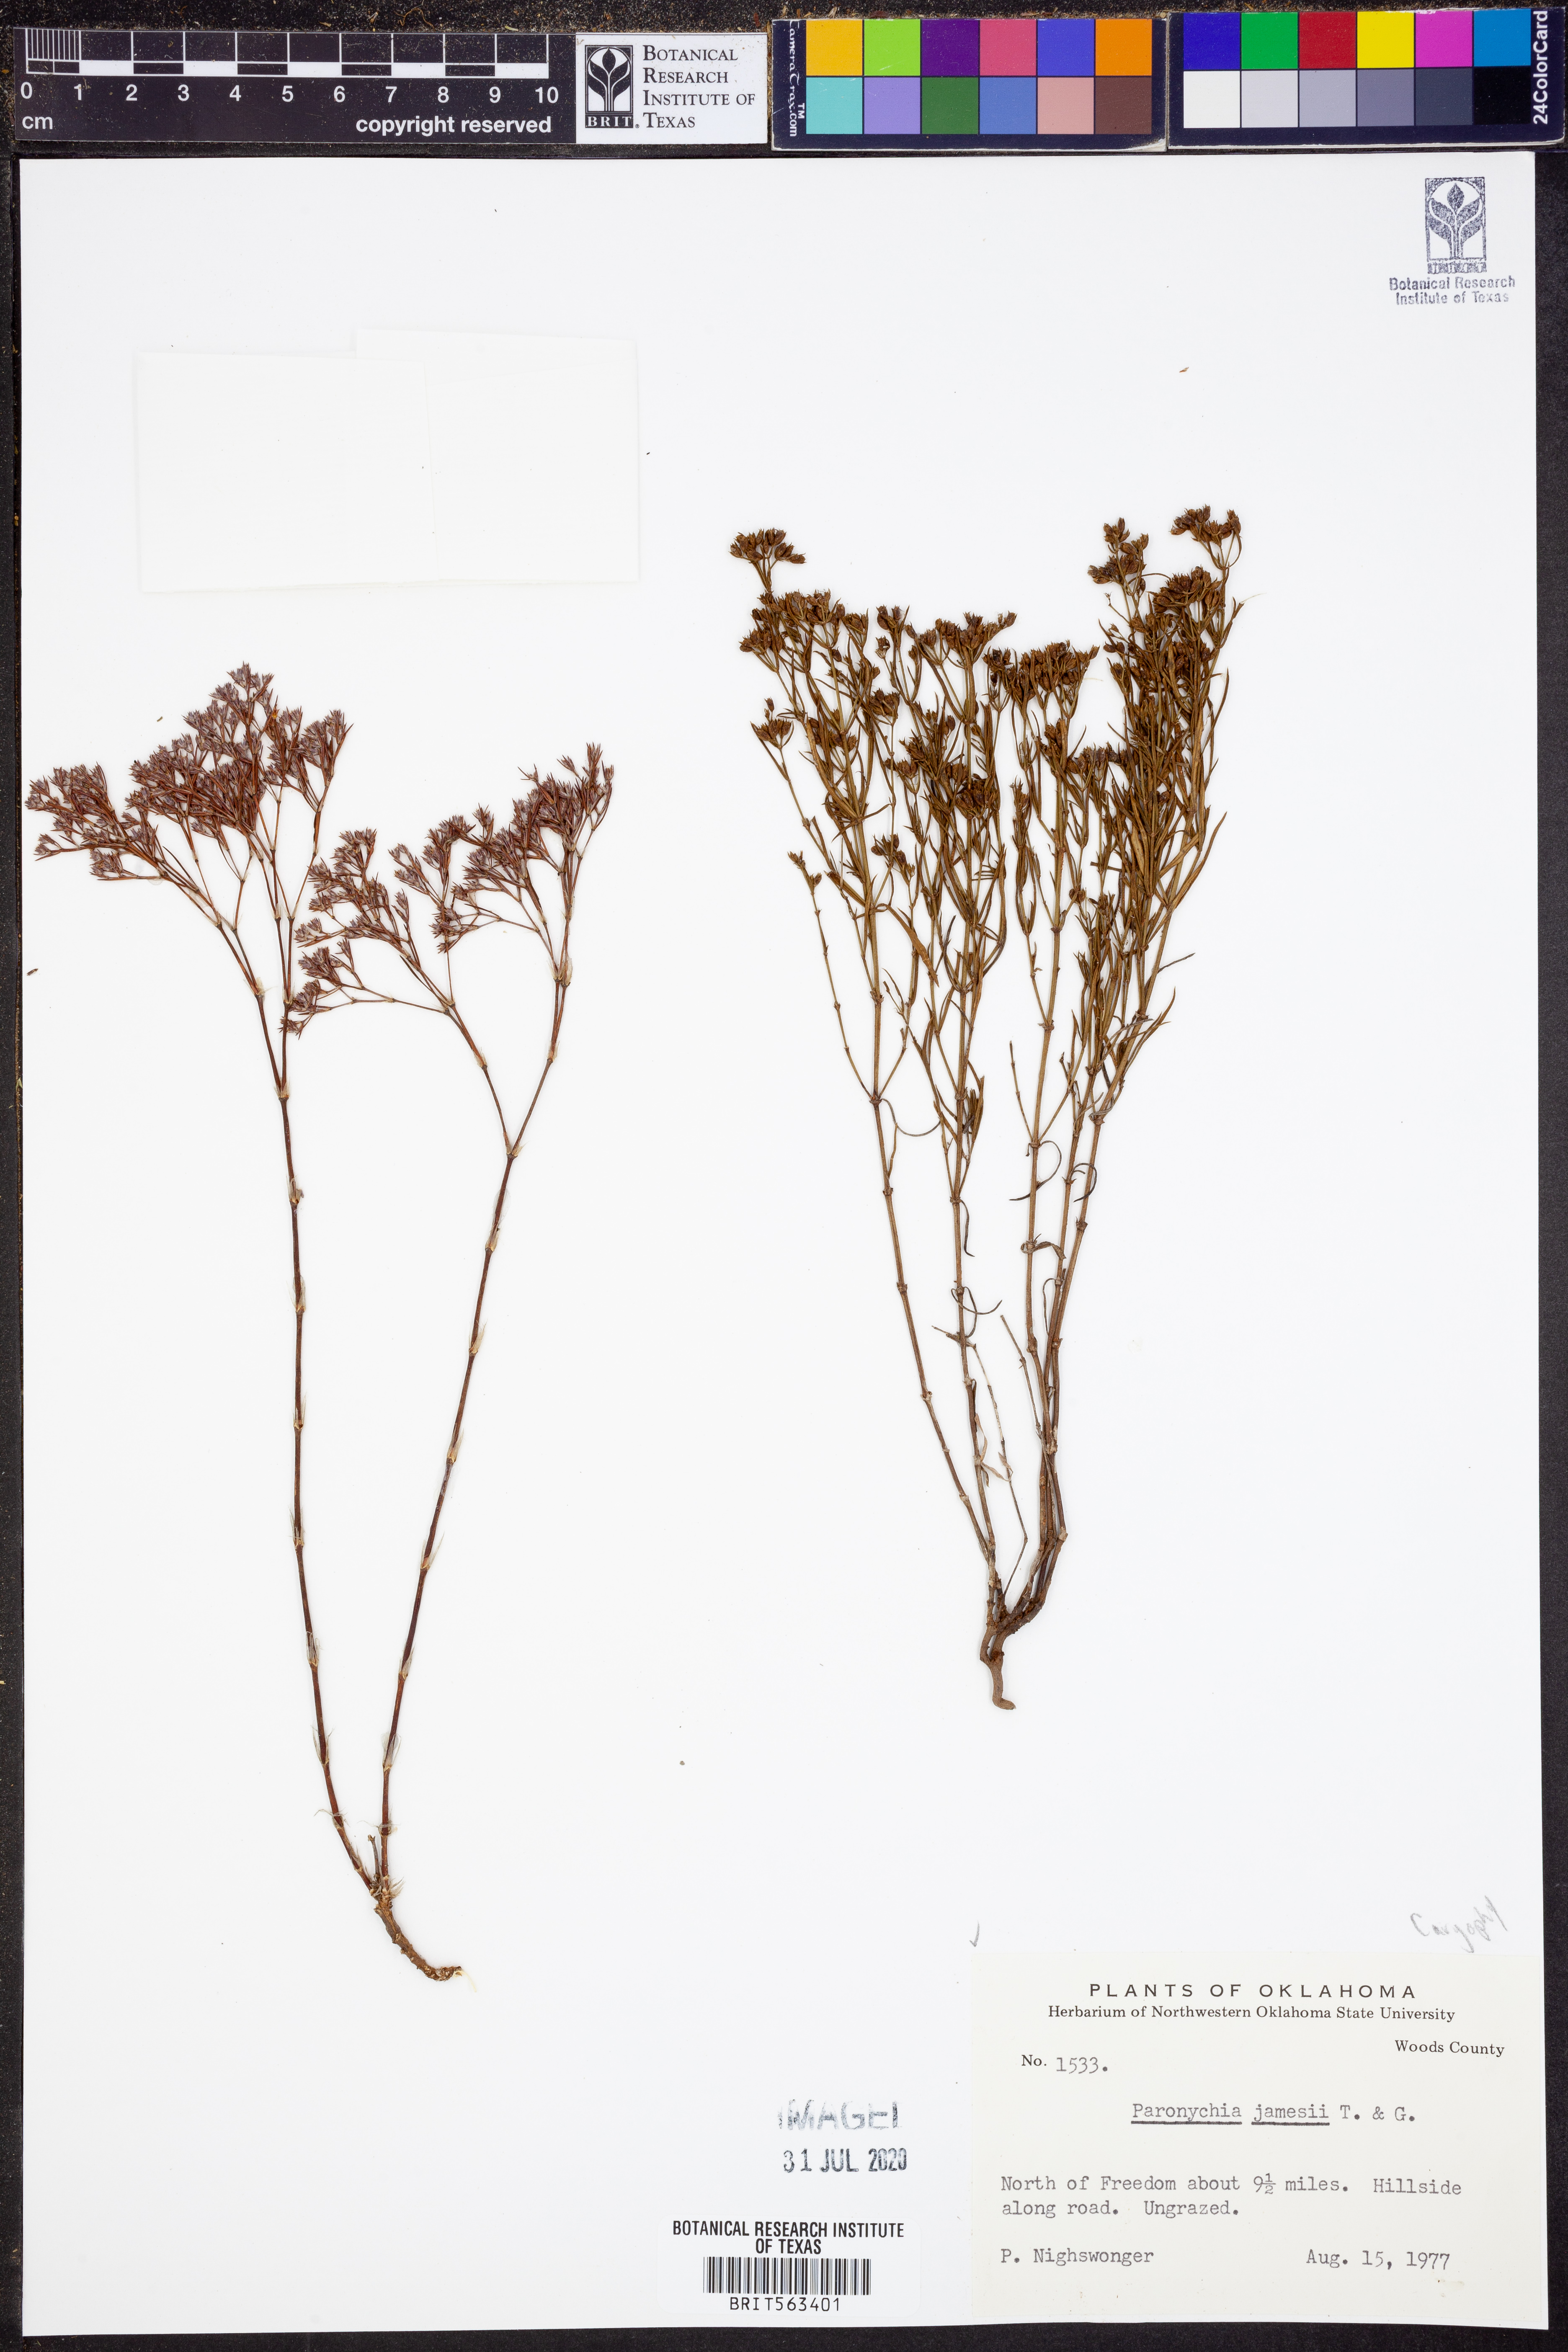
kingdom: Plantae
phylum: Tracheophyta
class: Magnoliopsida
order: Caryophyllales
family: Caryophyllaceae
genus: Paronychia
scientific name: Paronychia jamesii
